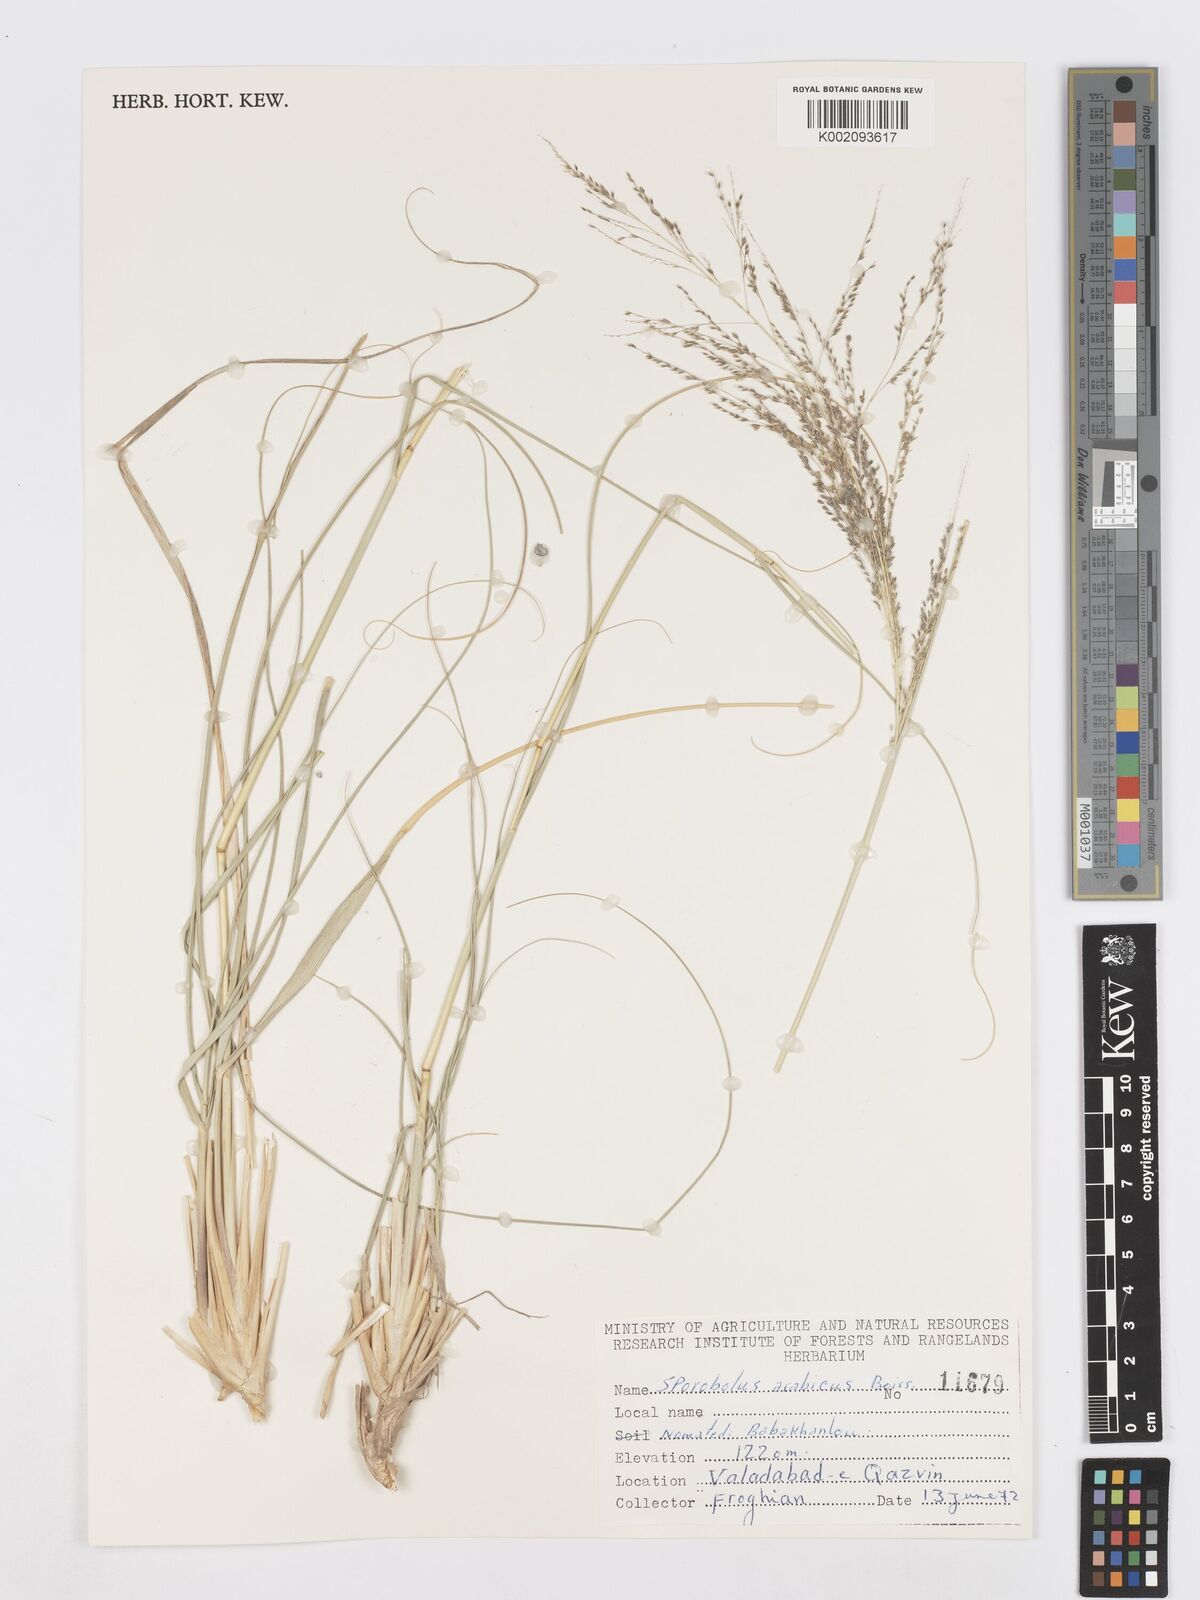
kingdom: Plantae
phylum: Tracheophyta
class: Liliopsida
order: Poales
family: Poaceae
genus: Sporobolus
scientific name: Sporobolus ioclados
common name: Pan dropseed
